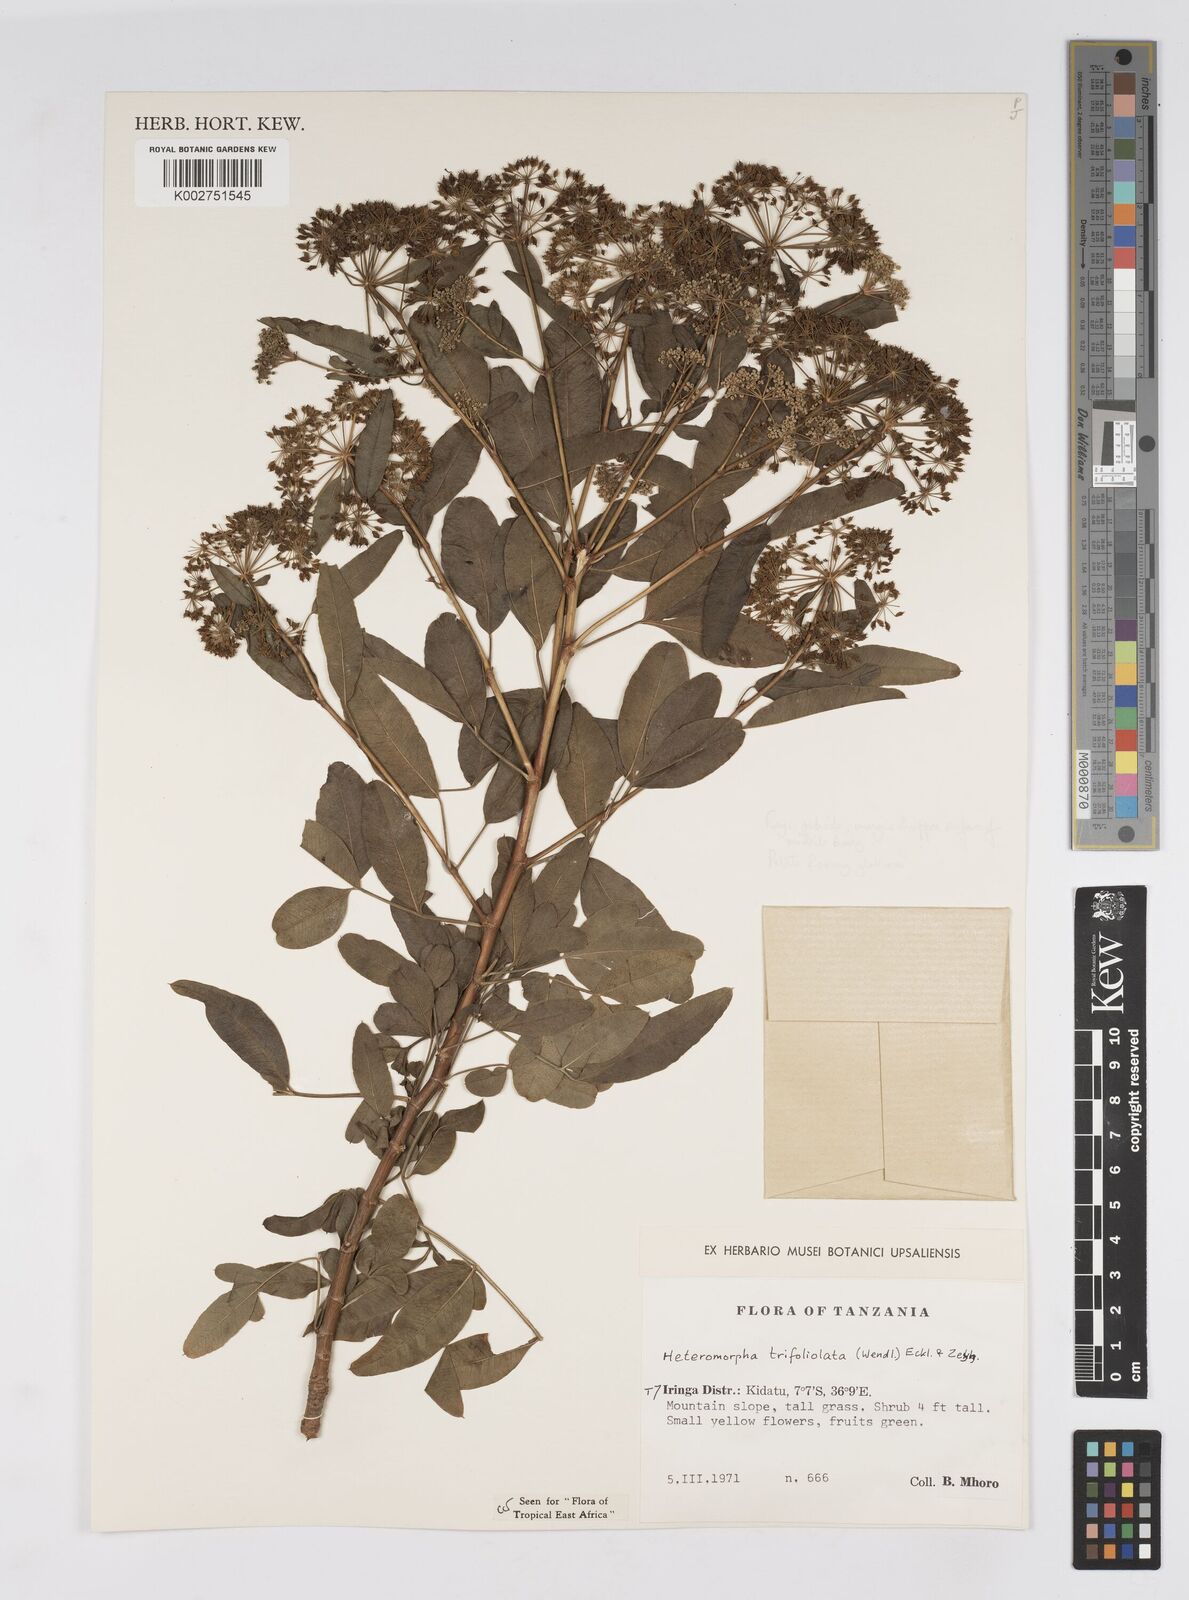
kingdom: Plantae
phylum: Tracheophyta
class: Magnoliopsida
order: Apiales
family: Apiaceae
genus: Heteromorpha
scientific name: Heteromorpha arborescens
